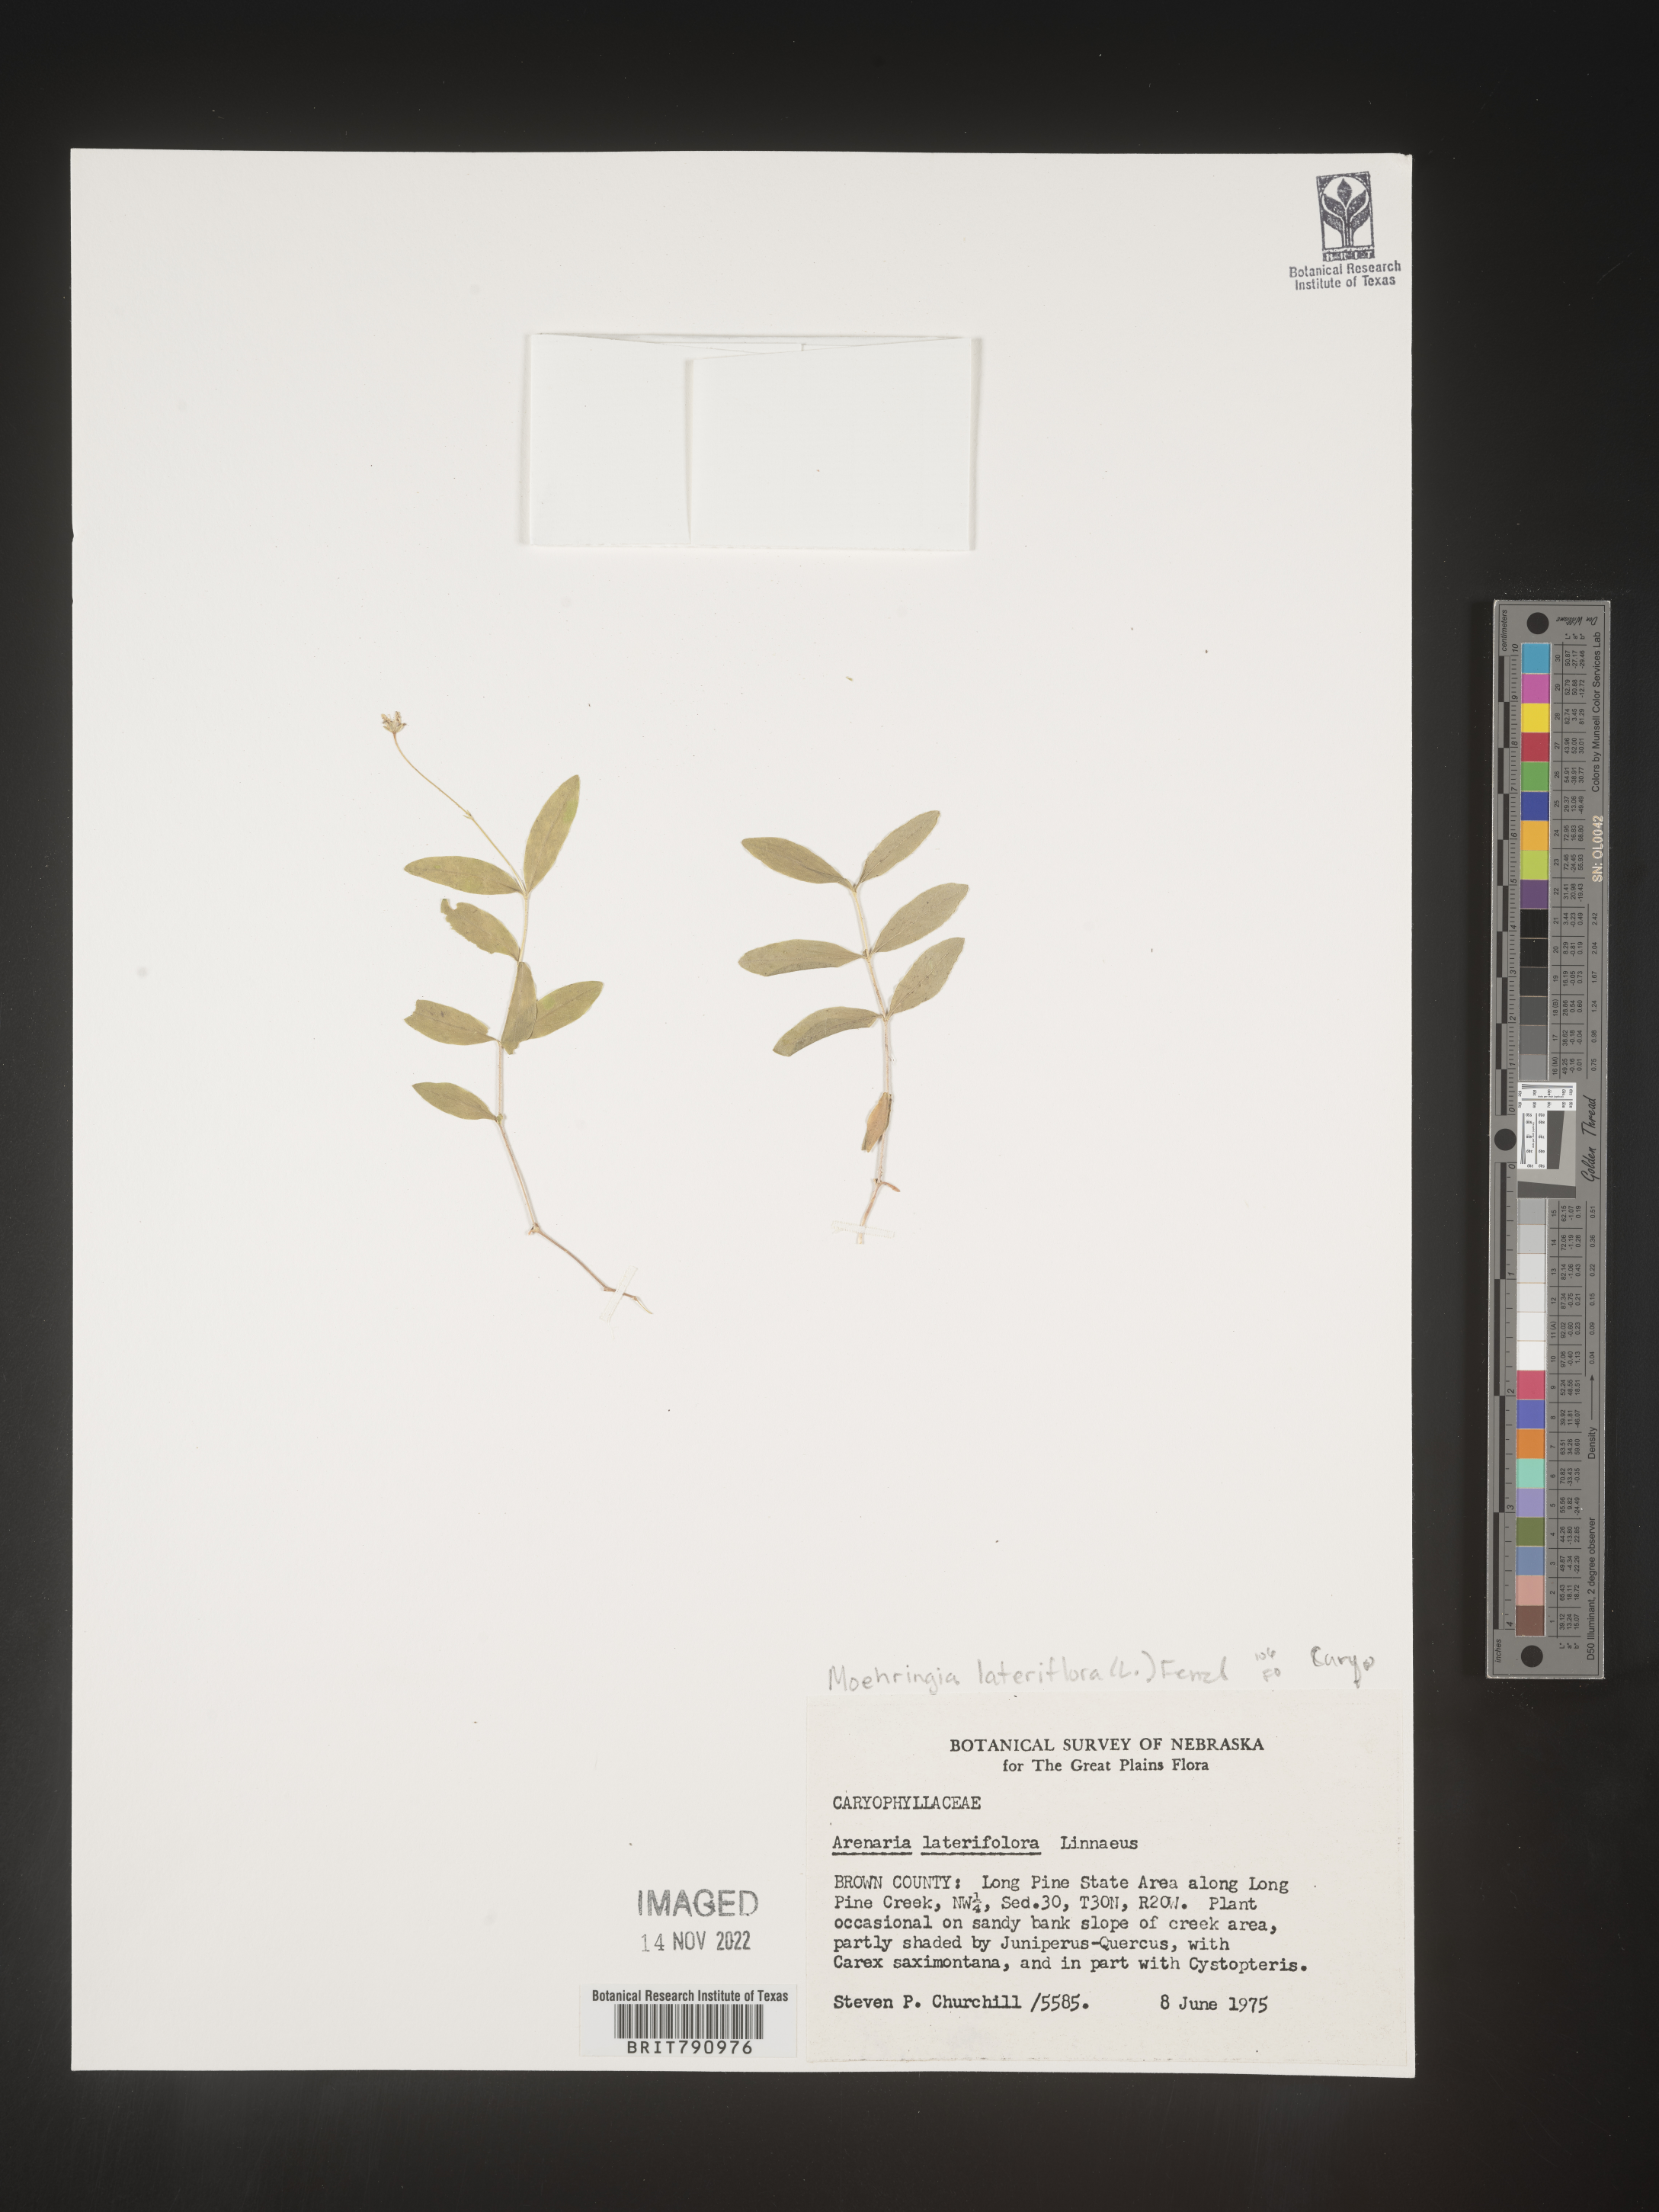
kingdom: Plantae
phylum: Tracheophyta
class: Magnoliopsida
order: Caryophyllales
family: Caryophyllaceae
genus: Moehringia
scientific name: Moehringia
